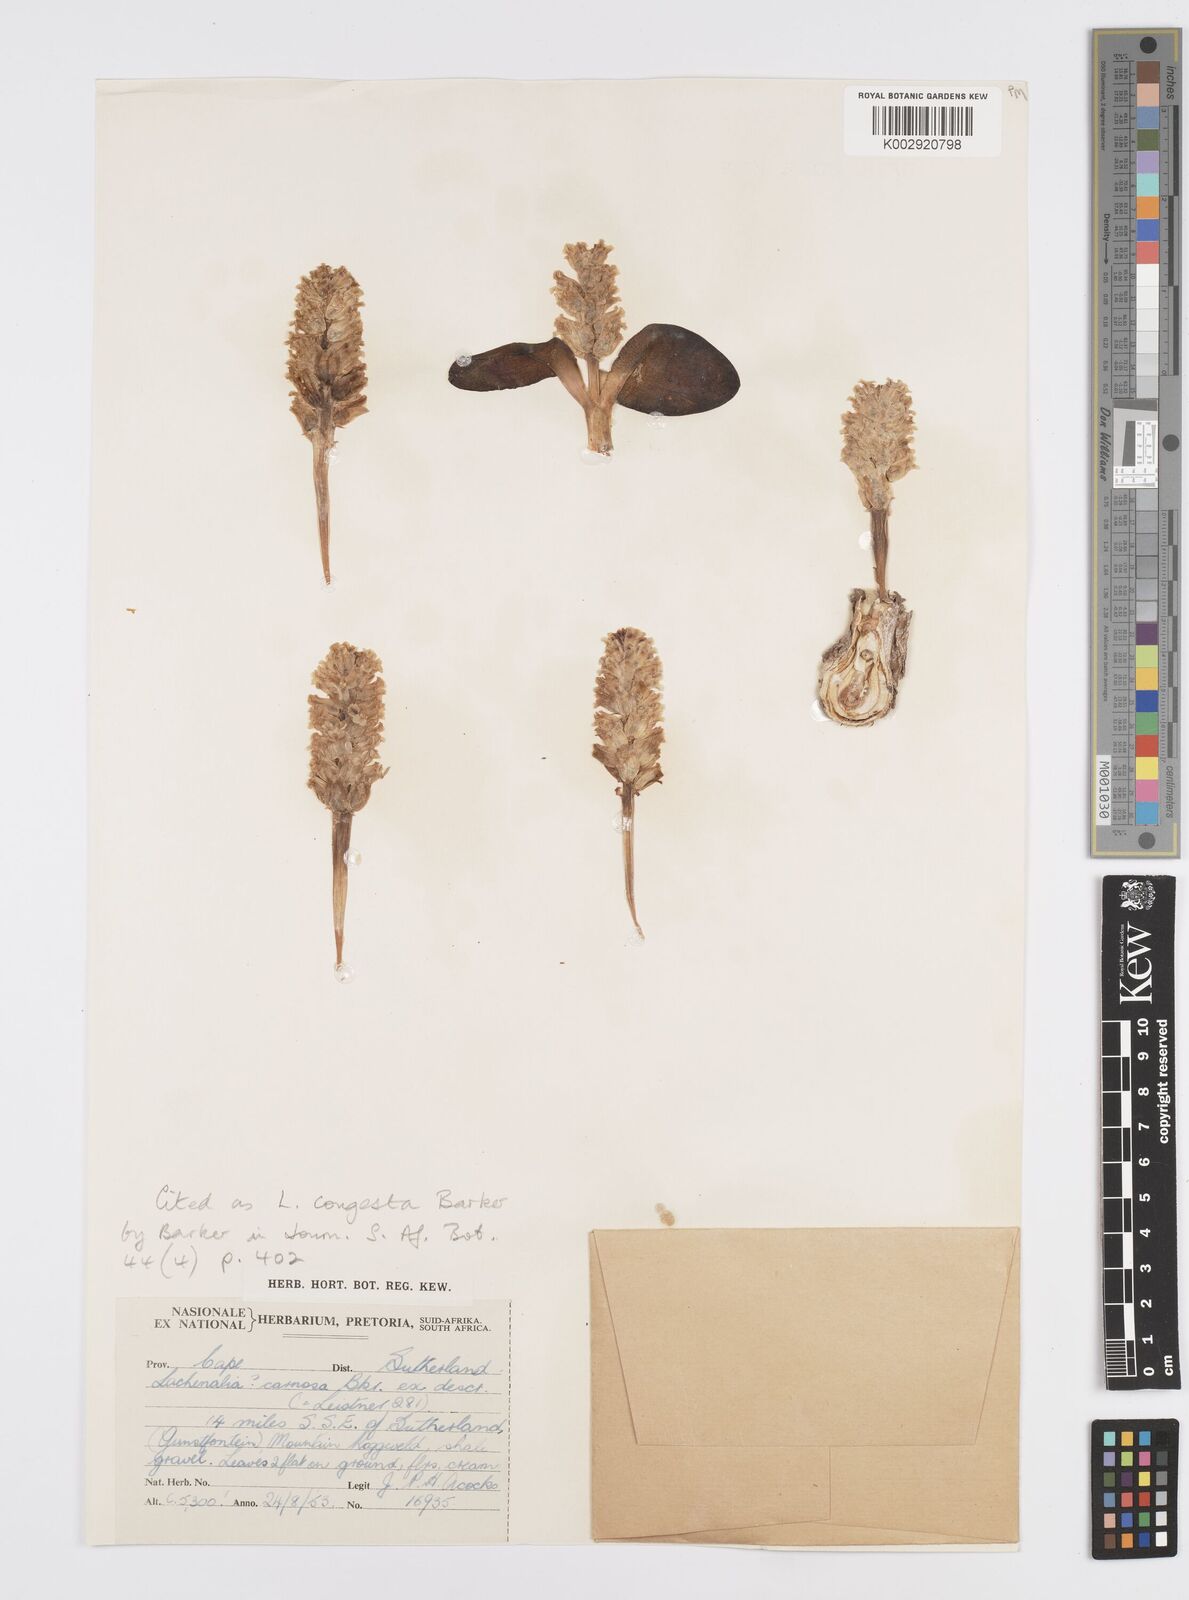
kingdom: Plantae
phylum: Tracheophyta
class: Liliopsida
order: Asparagales
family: Asparagaceae
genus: Lachenalia
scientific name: Lachenalia congesta
